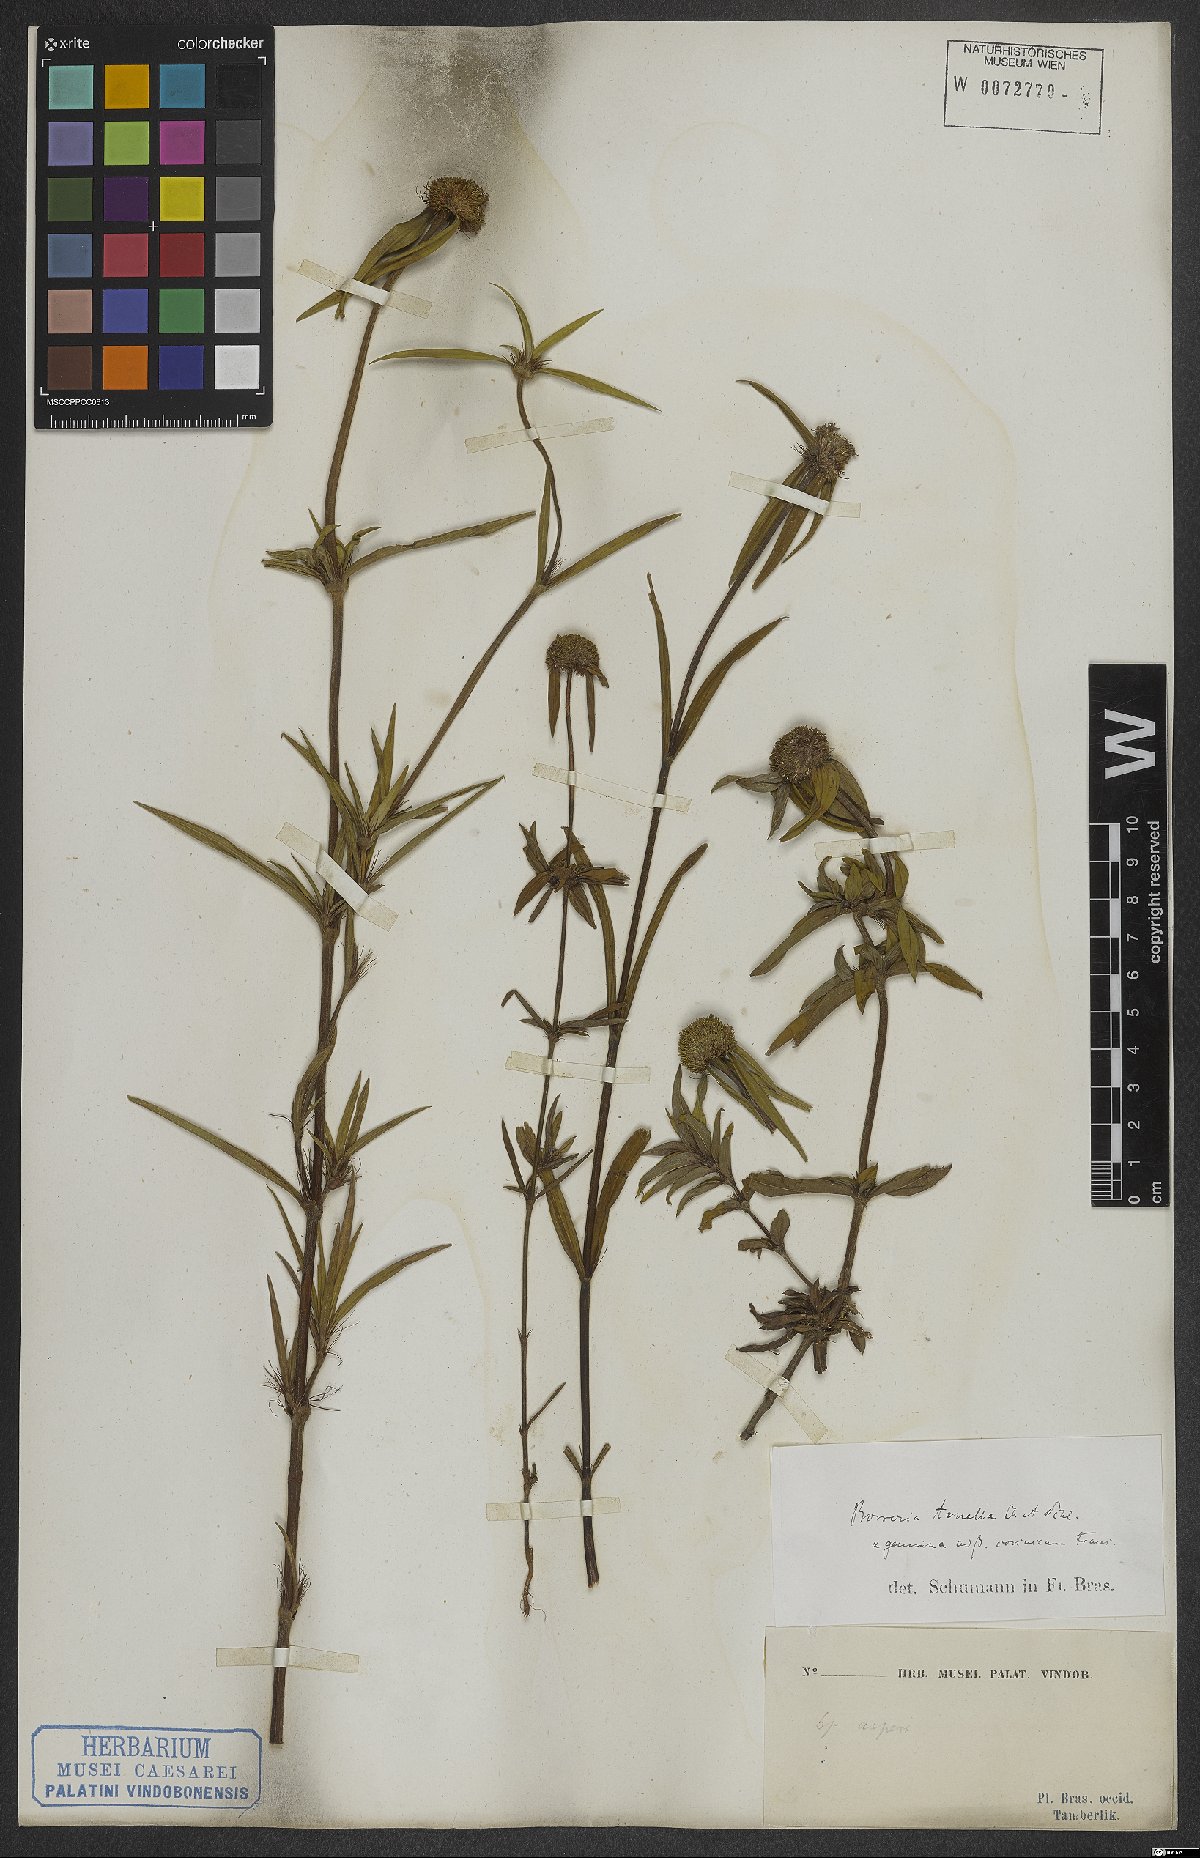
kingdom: Plantae
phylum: Tracheophyta
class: Magnoliopsida
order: Gentianales
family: Rubiaceae
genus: Spermacoce
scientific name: Spermacoce orinocensis
